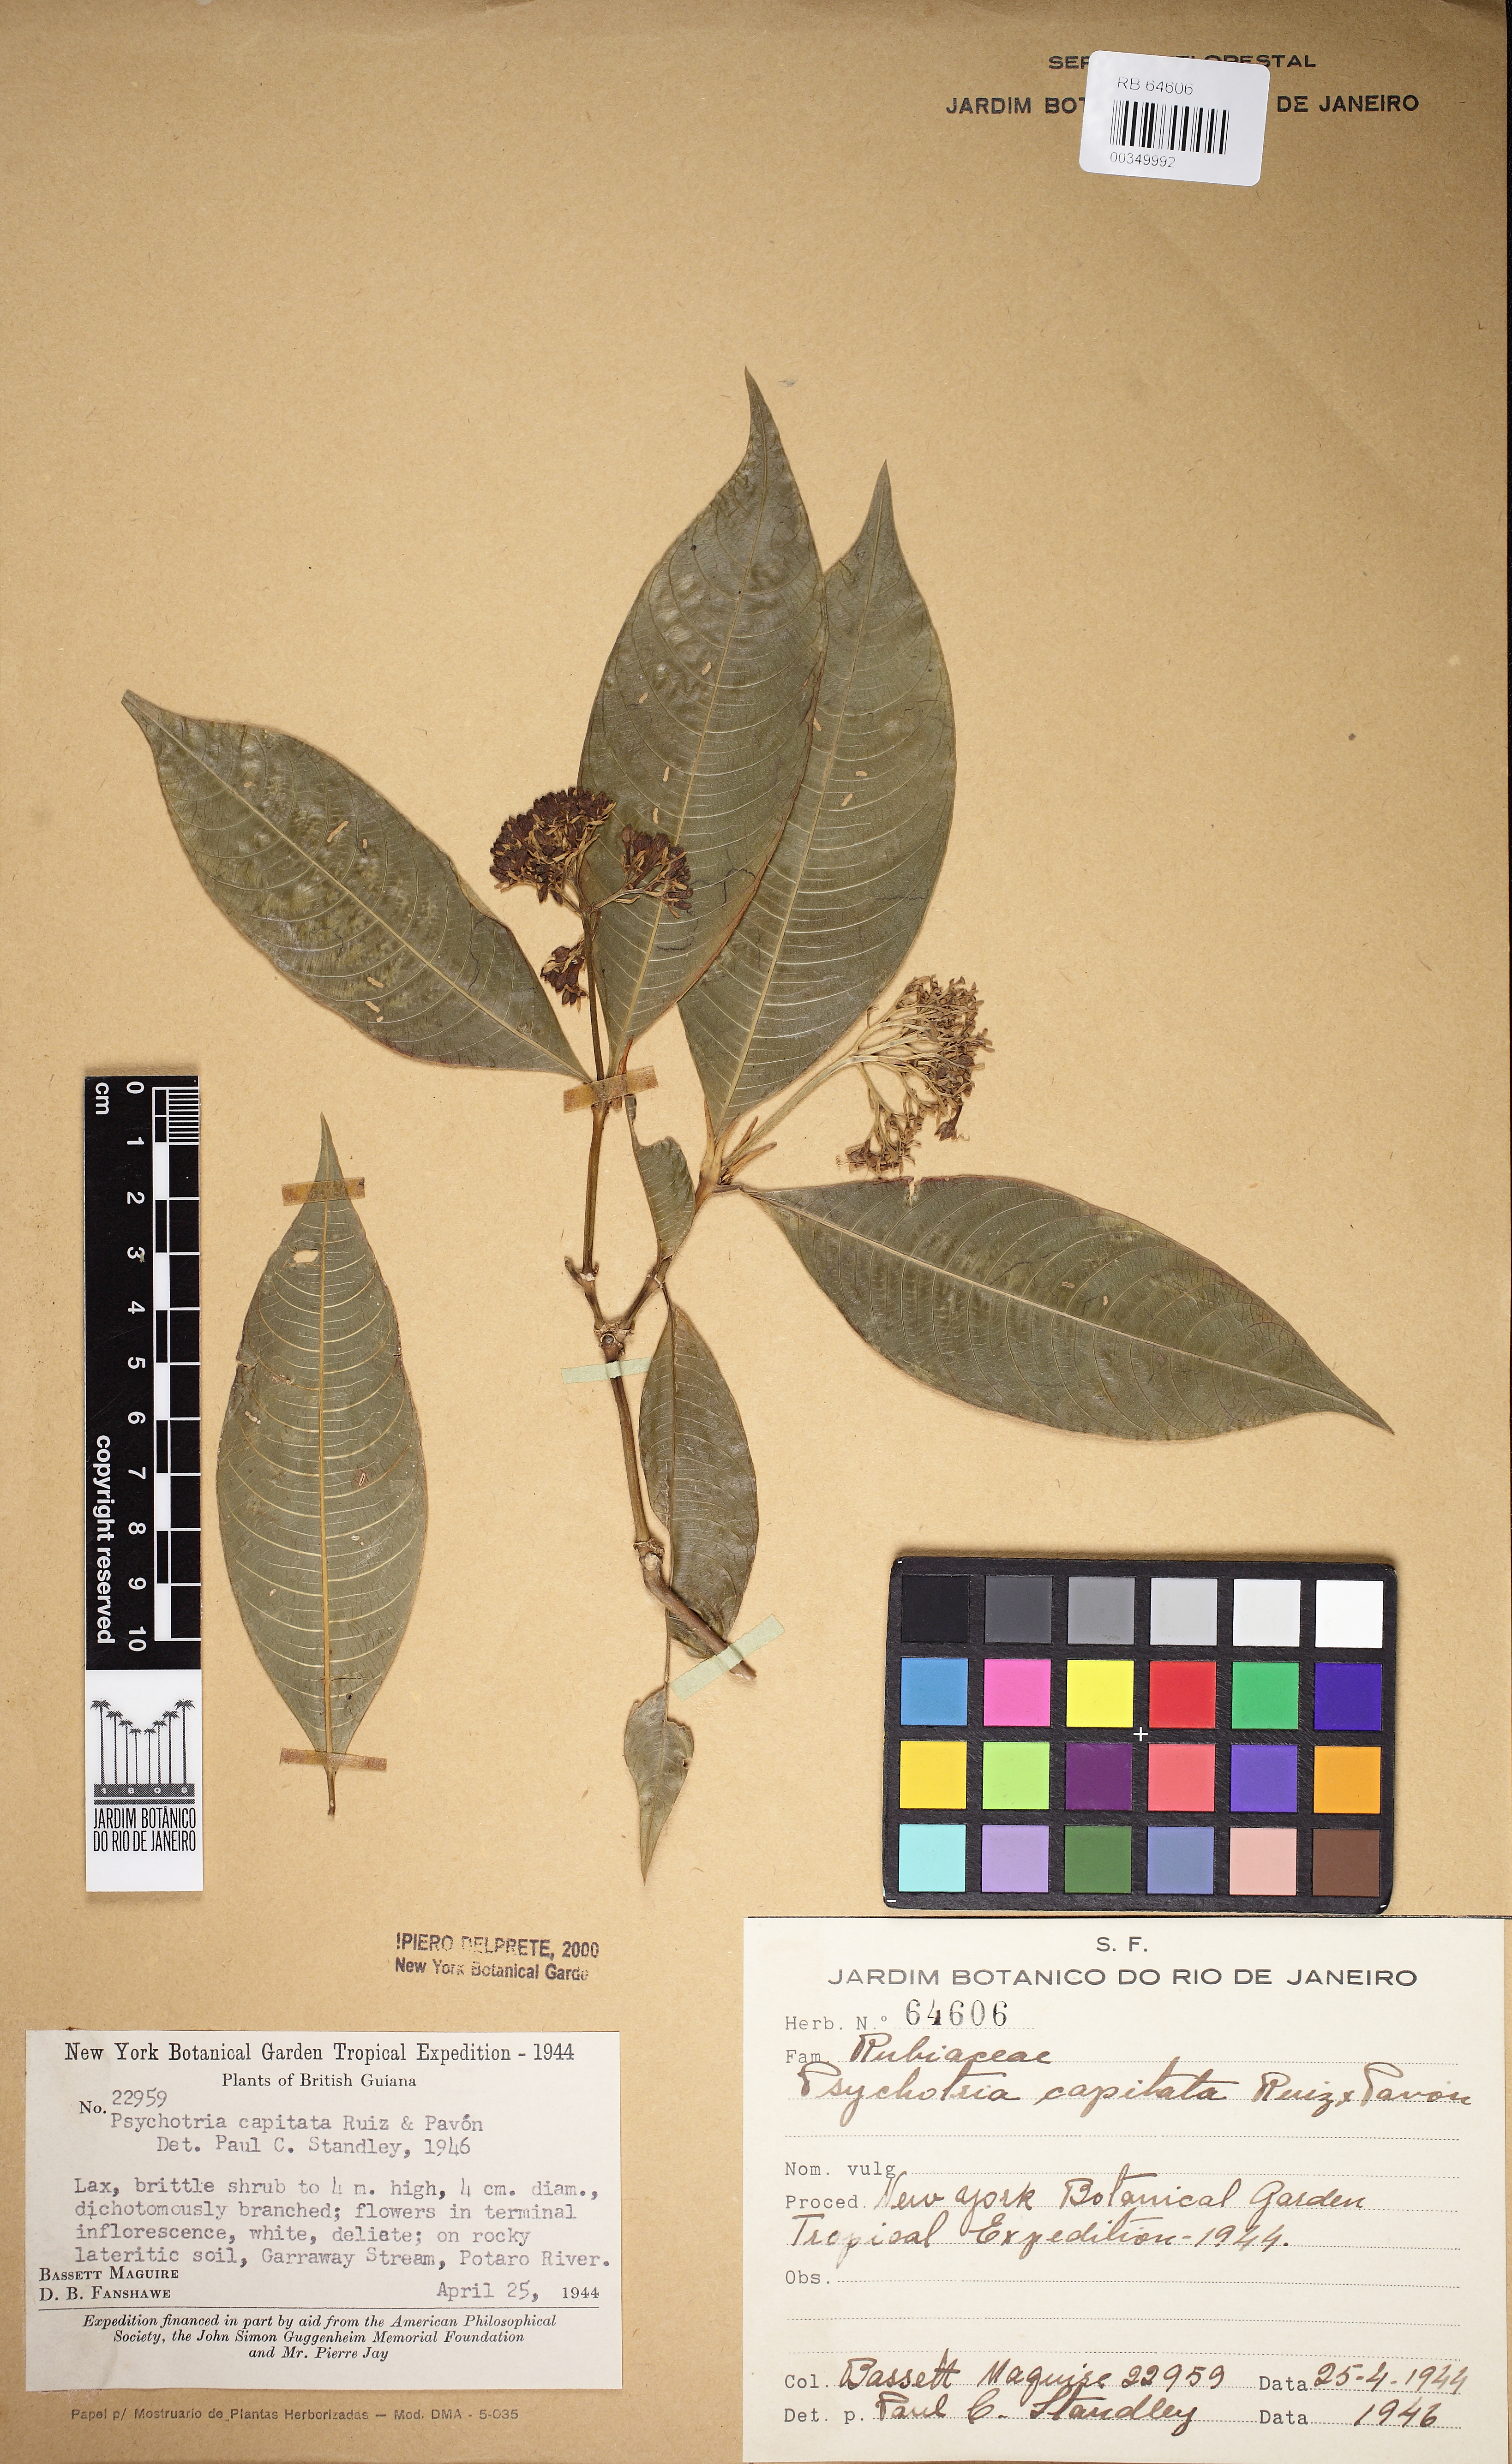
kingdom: Plantae
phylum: Tracheophyta
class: Magnoliopsida
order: Gentianales
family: Rubiaceae
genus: Palicourea
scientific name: Palicourea violacea
